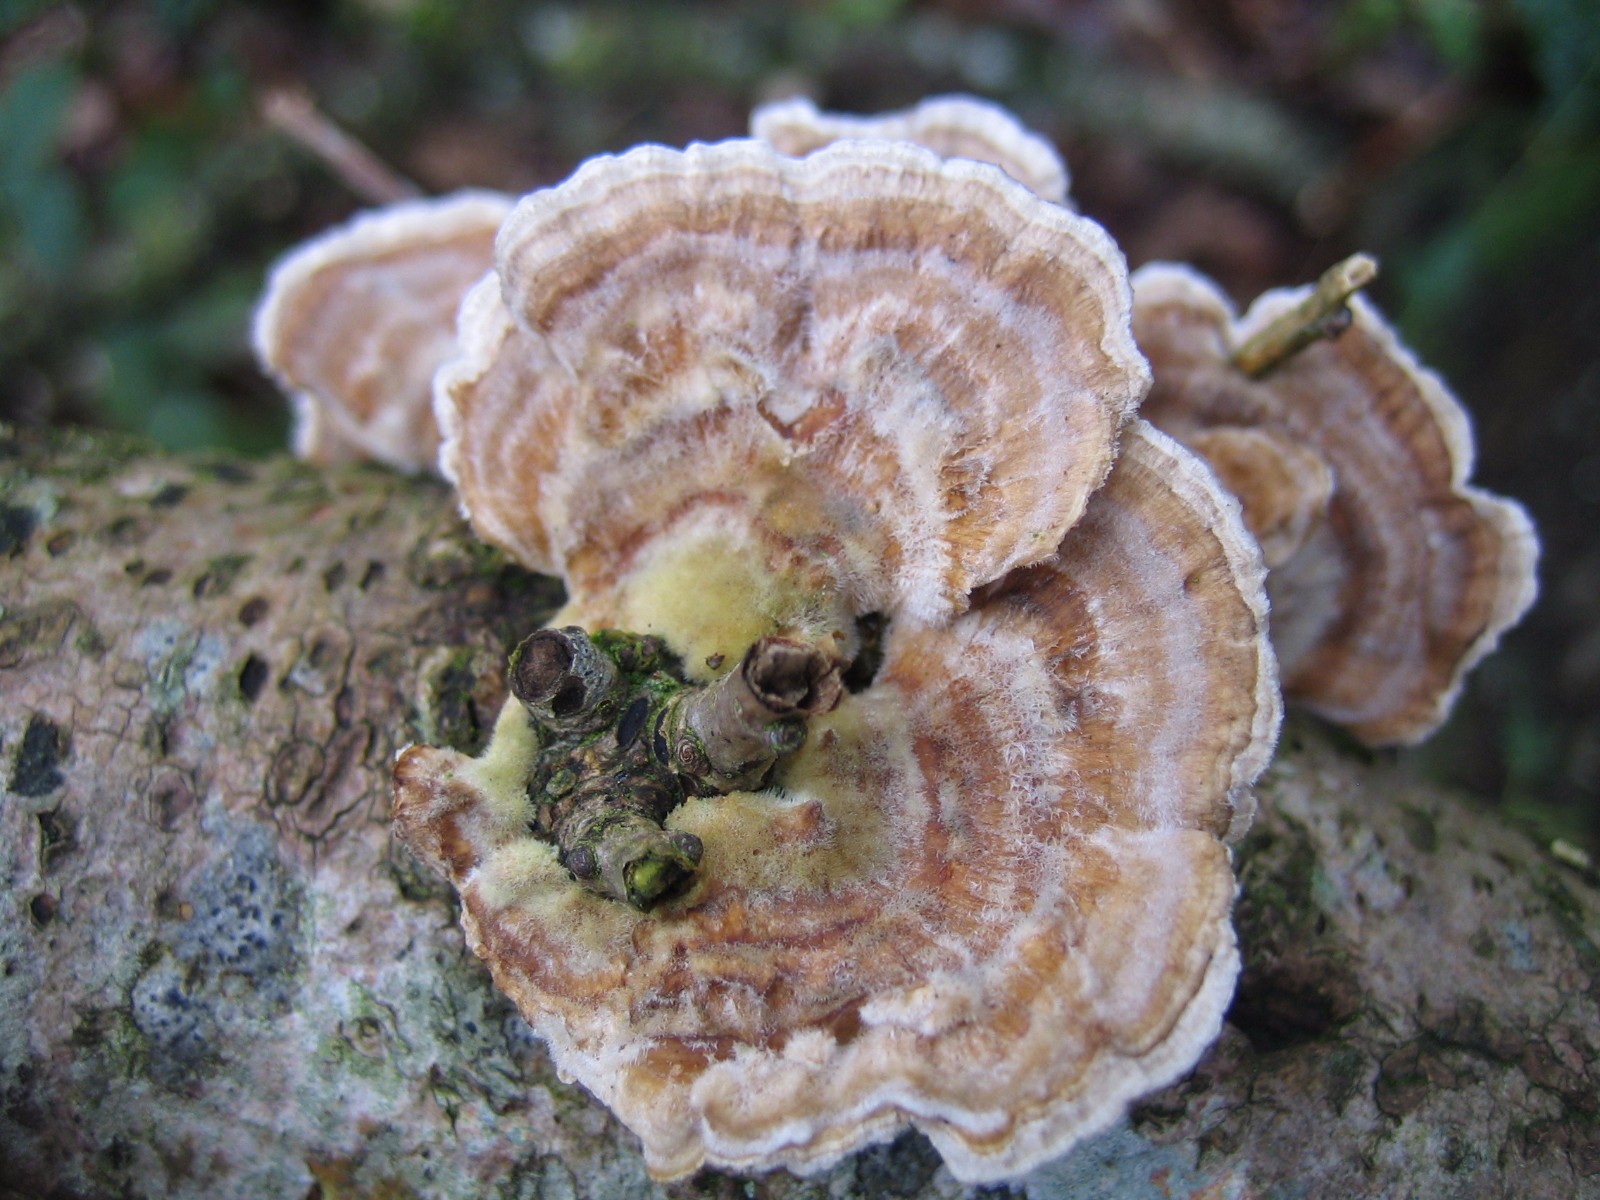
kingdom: Fungi
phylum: Basidiomycota
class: Agaricomycetes
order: Polyporales
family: Polyporaceae
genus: Trametes
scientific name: Trametes versicolor
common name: broget læderporesvamp
